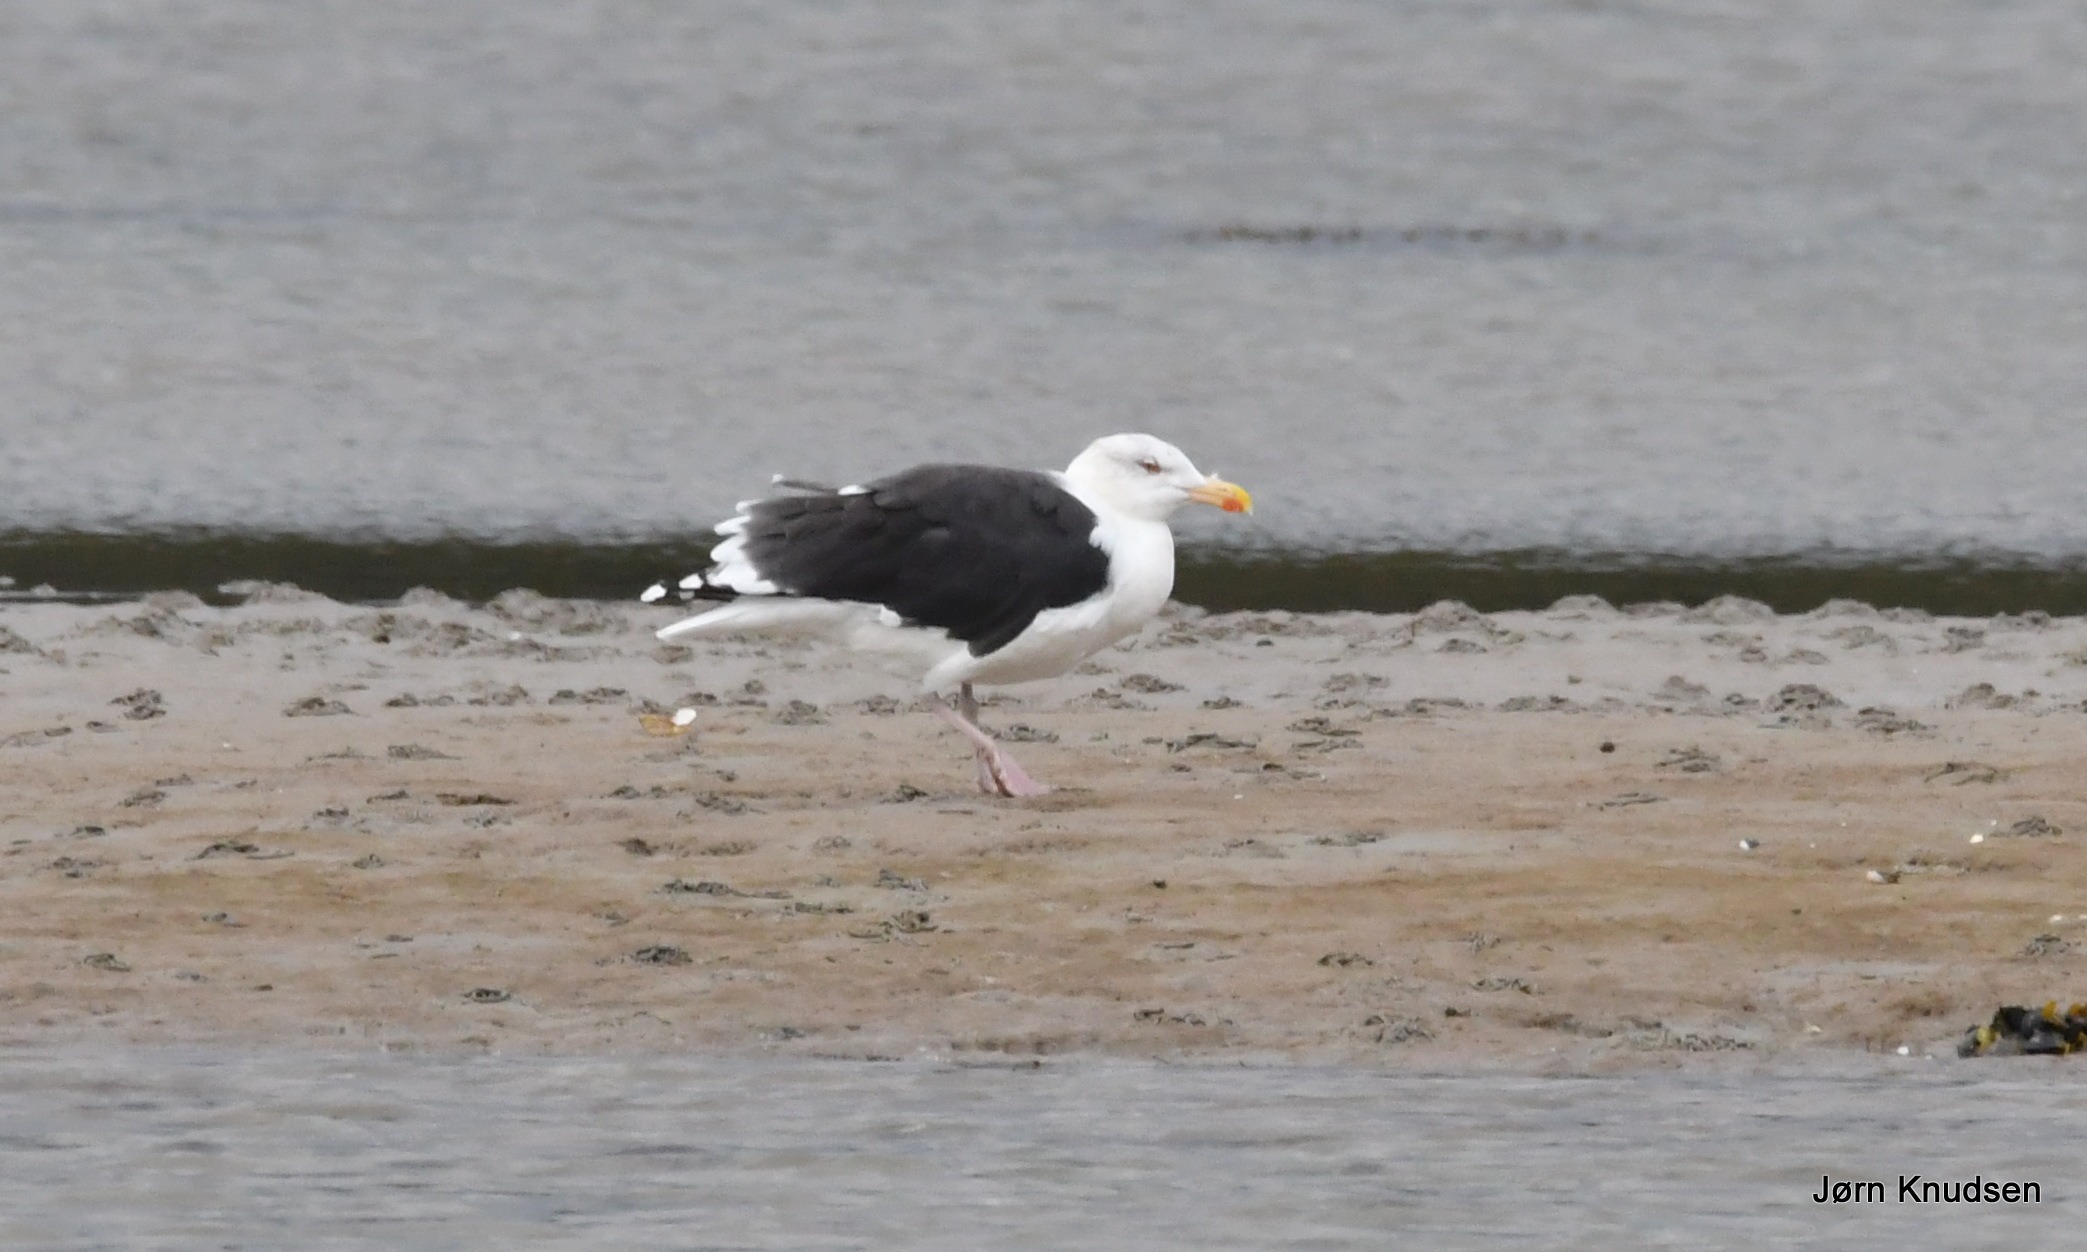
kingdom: Animalia
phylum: Chordata
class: Aves
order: Charadriiformes
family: Laridae
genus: Larus
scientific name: Larus marinus
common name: Svartbag
